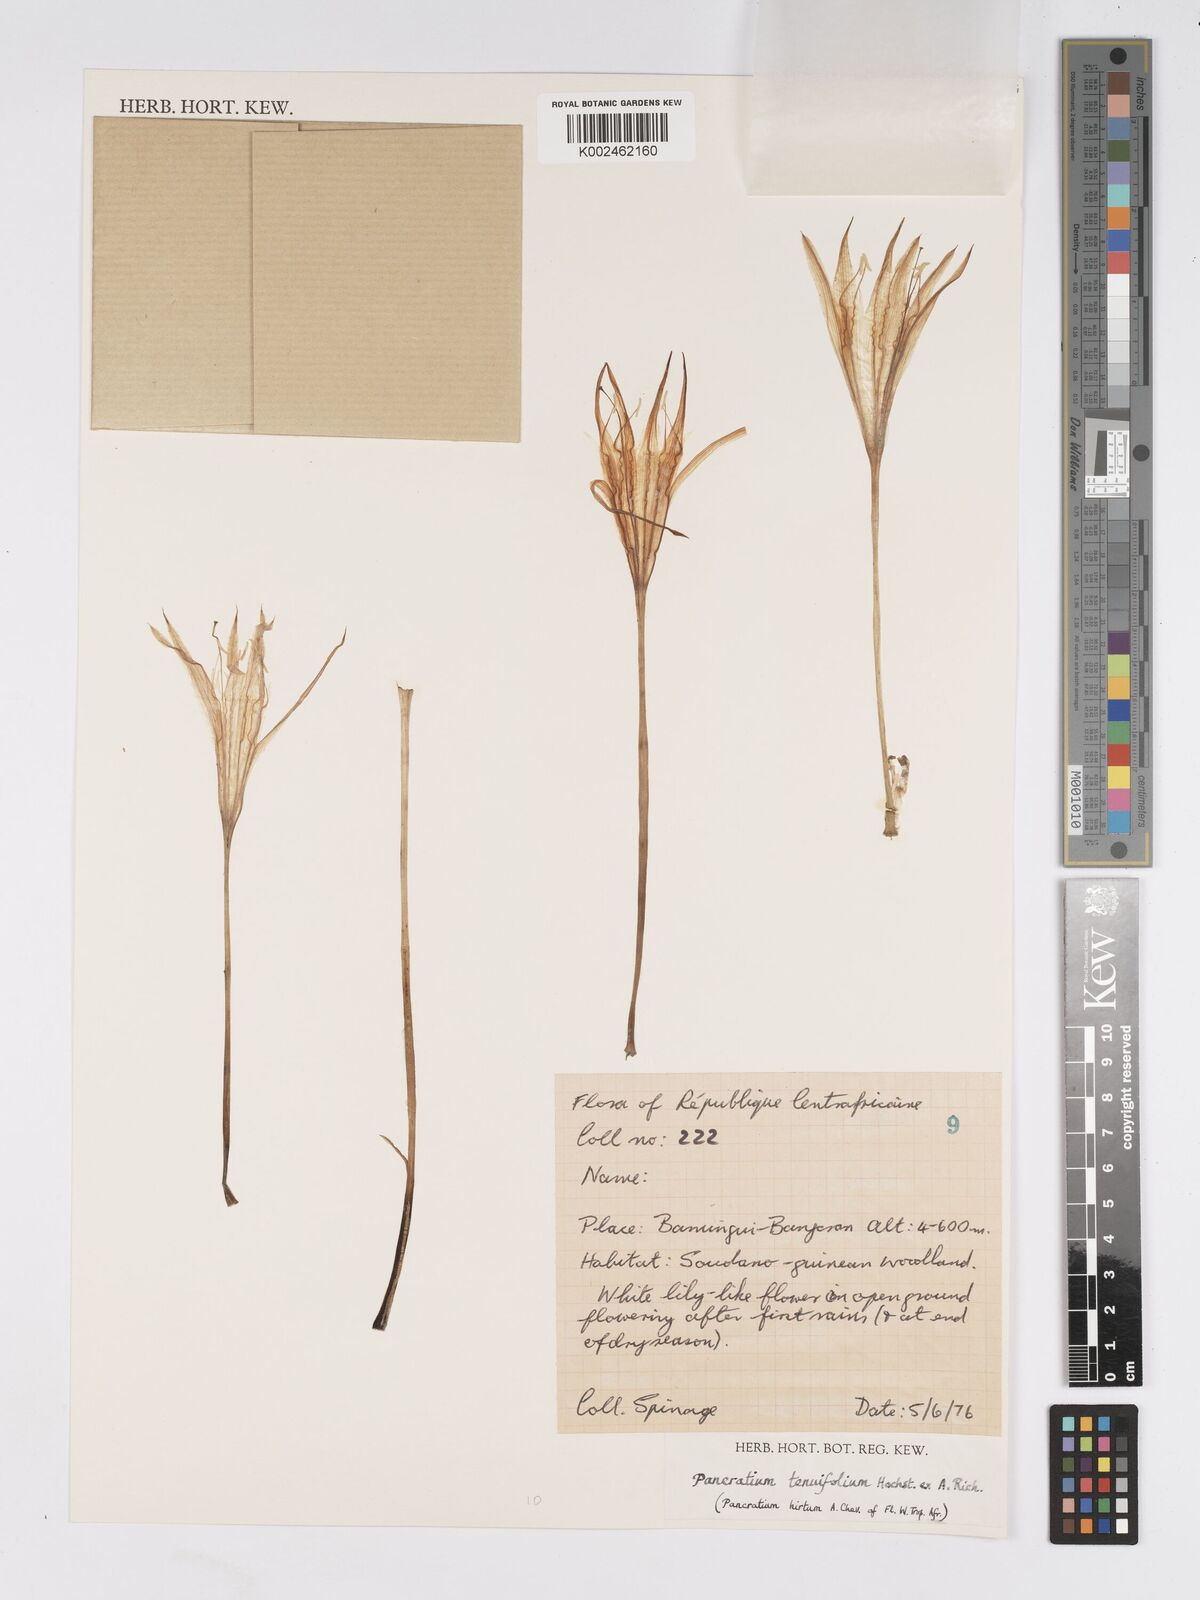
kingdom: Plantae
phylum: Tracheophyta
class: Liliopsida
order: Asparagales
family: Amaryllidaceae
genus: Pancratium
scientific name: Pancratium tenuifolium
